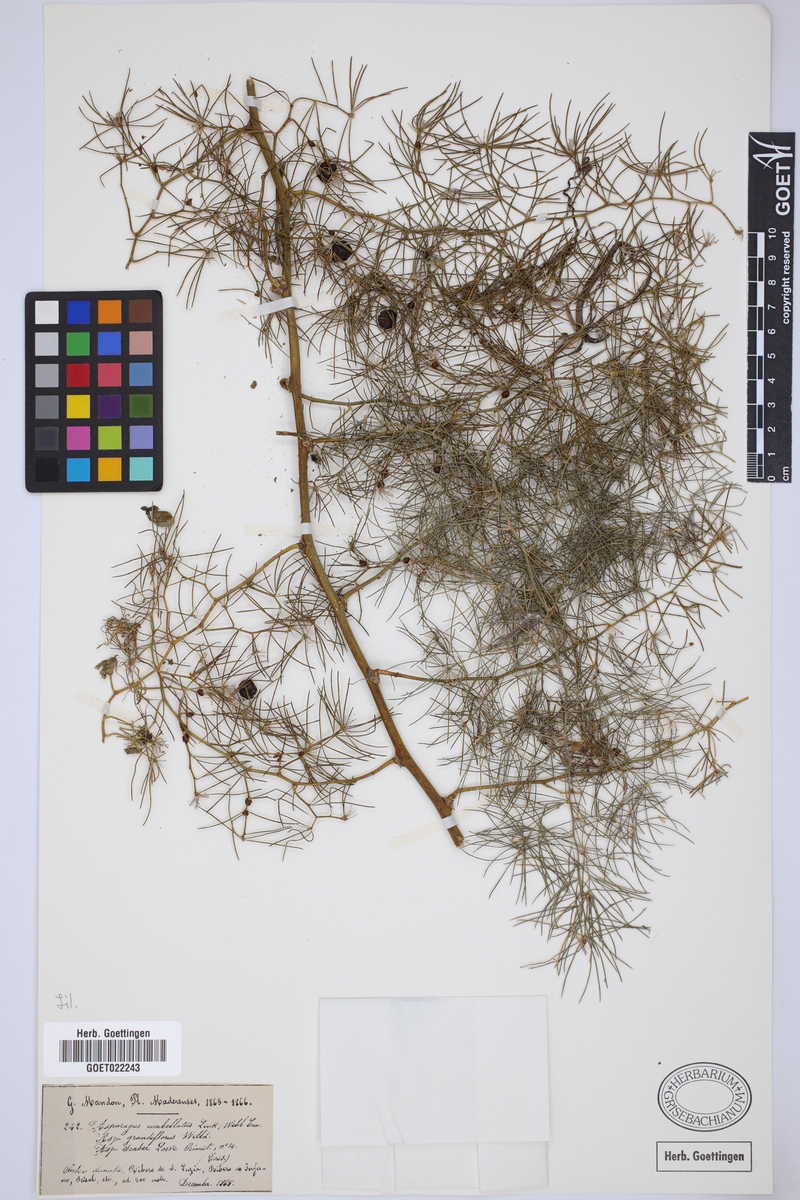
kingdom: Plantae
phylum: Tracheophyta
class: Liliopsida
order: Asparagales
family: Asparagaceae
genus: Asparagus
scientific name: Asparagus umbellatus
